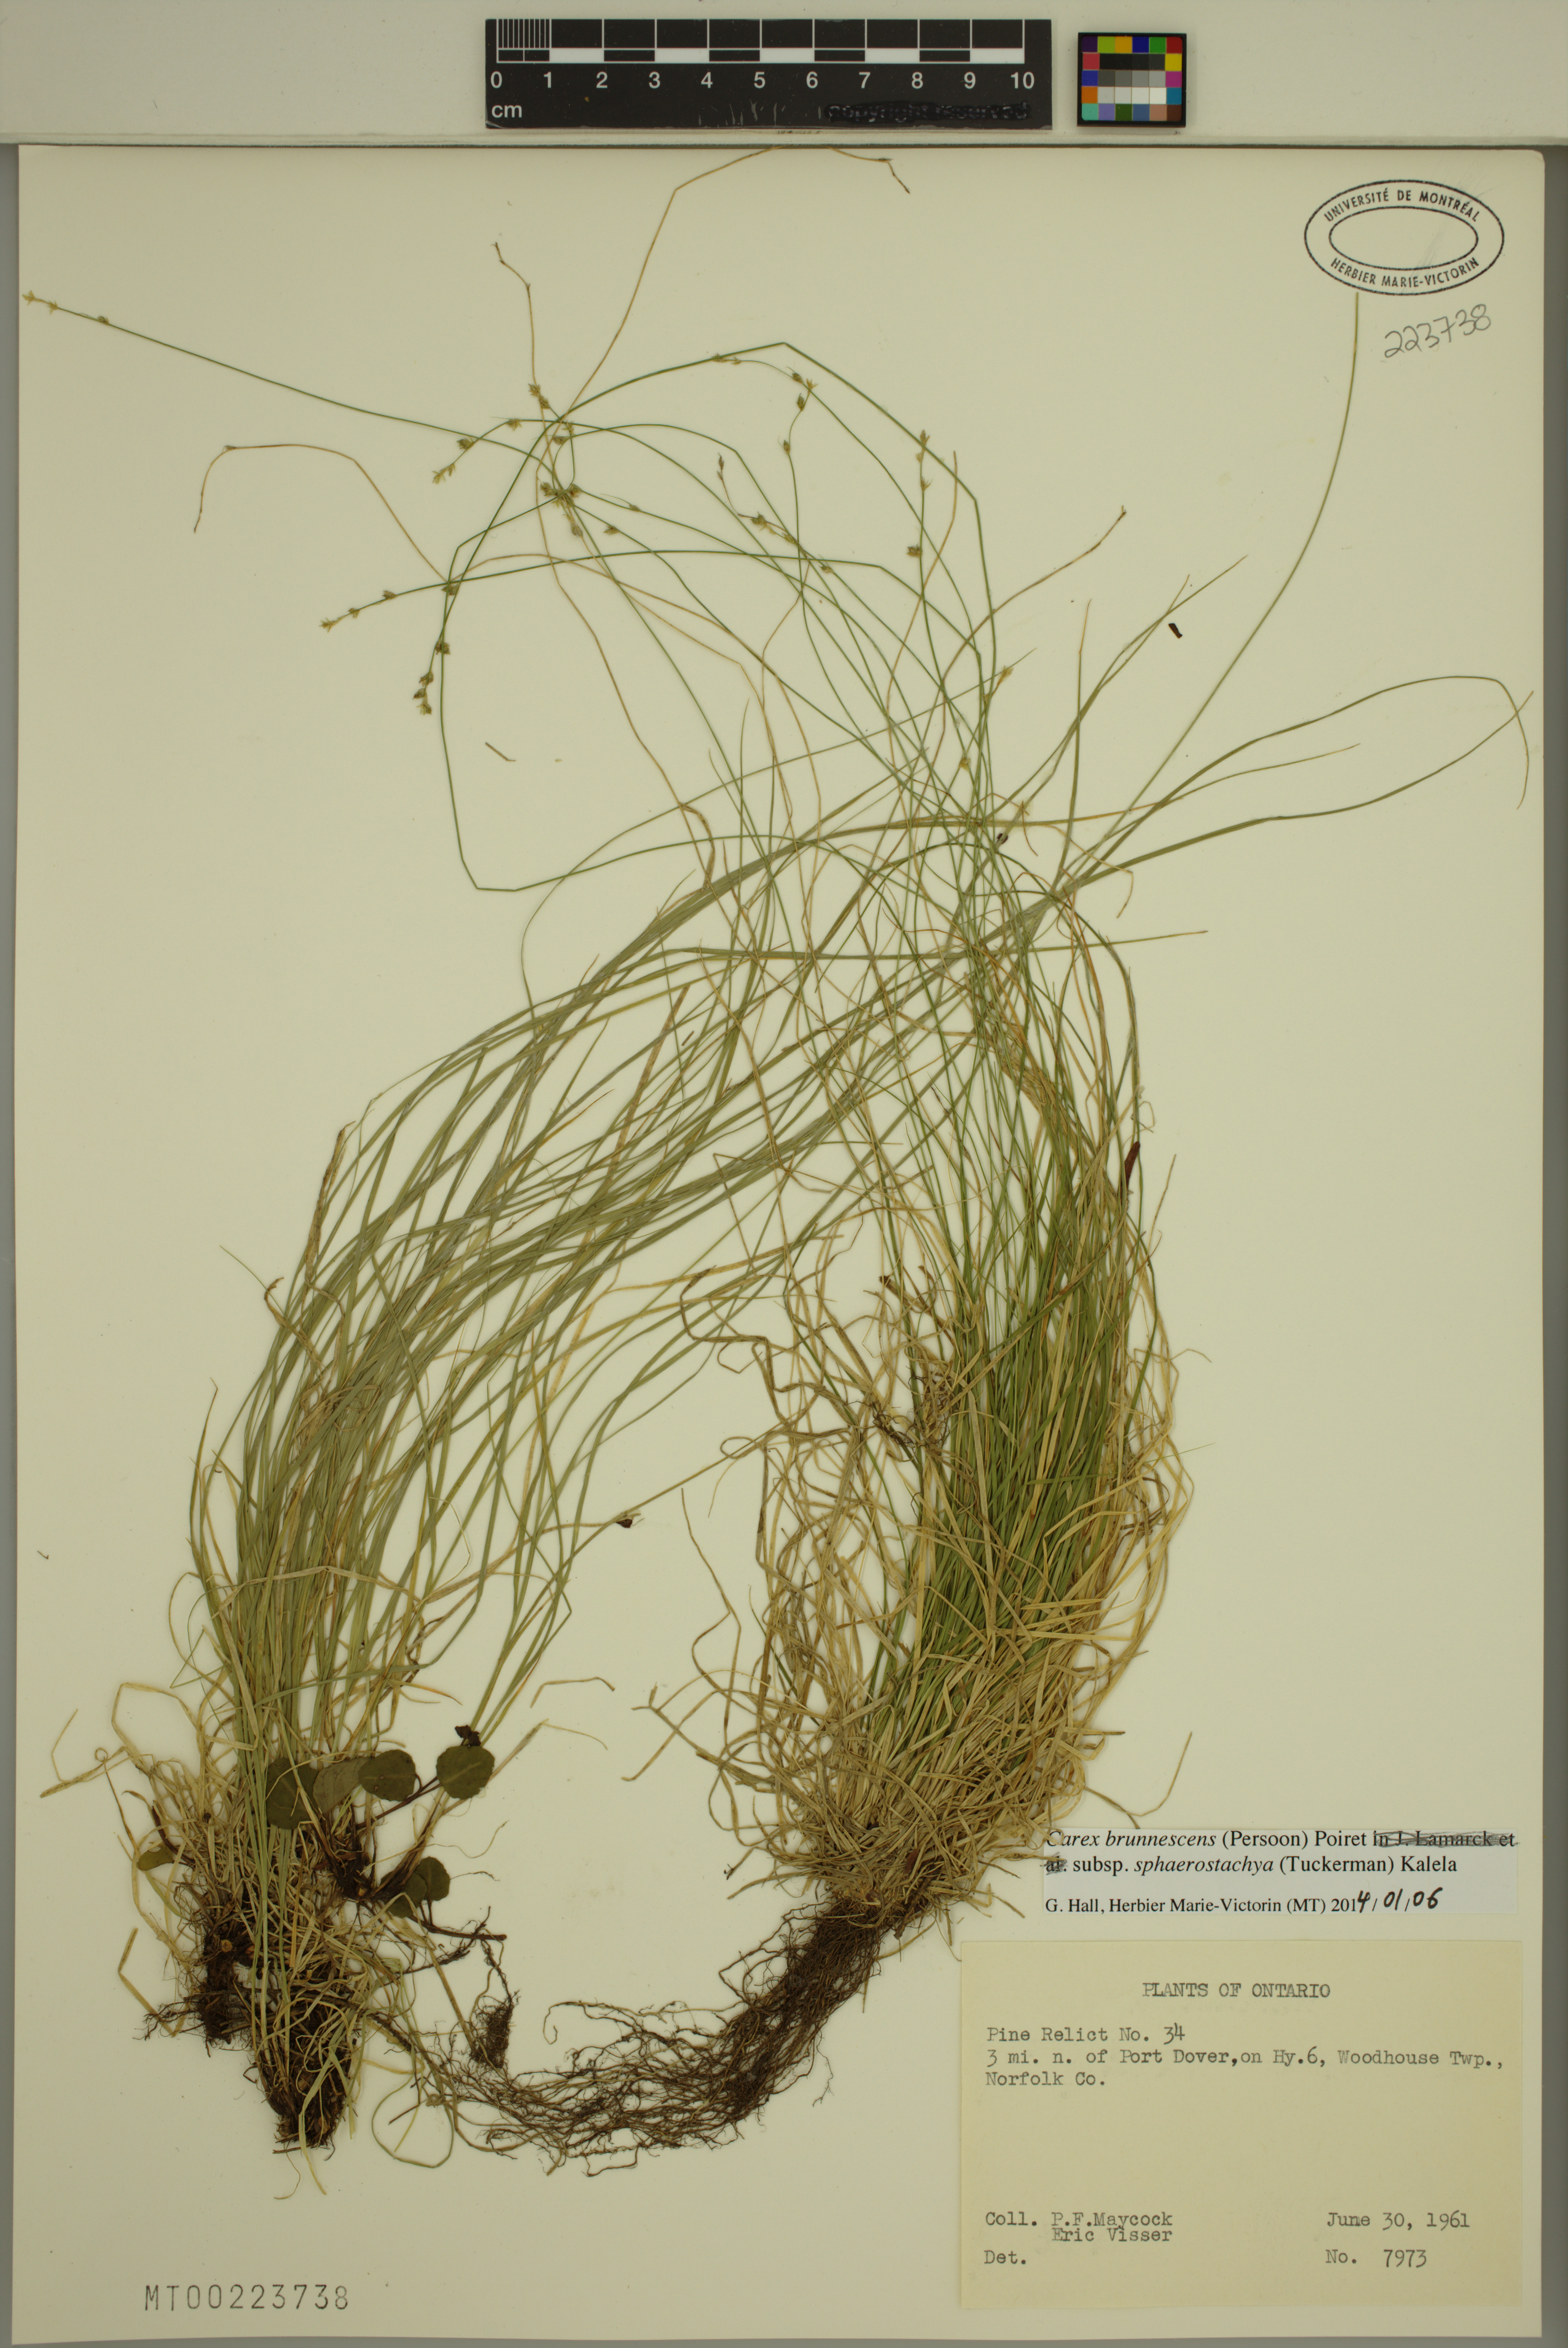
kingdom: Plantae
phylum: Tracheophyta
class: Liliopsida
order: Poales
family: Cyperaceae
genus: Carex
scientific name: Carex brunnescens
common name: Brown sedge
